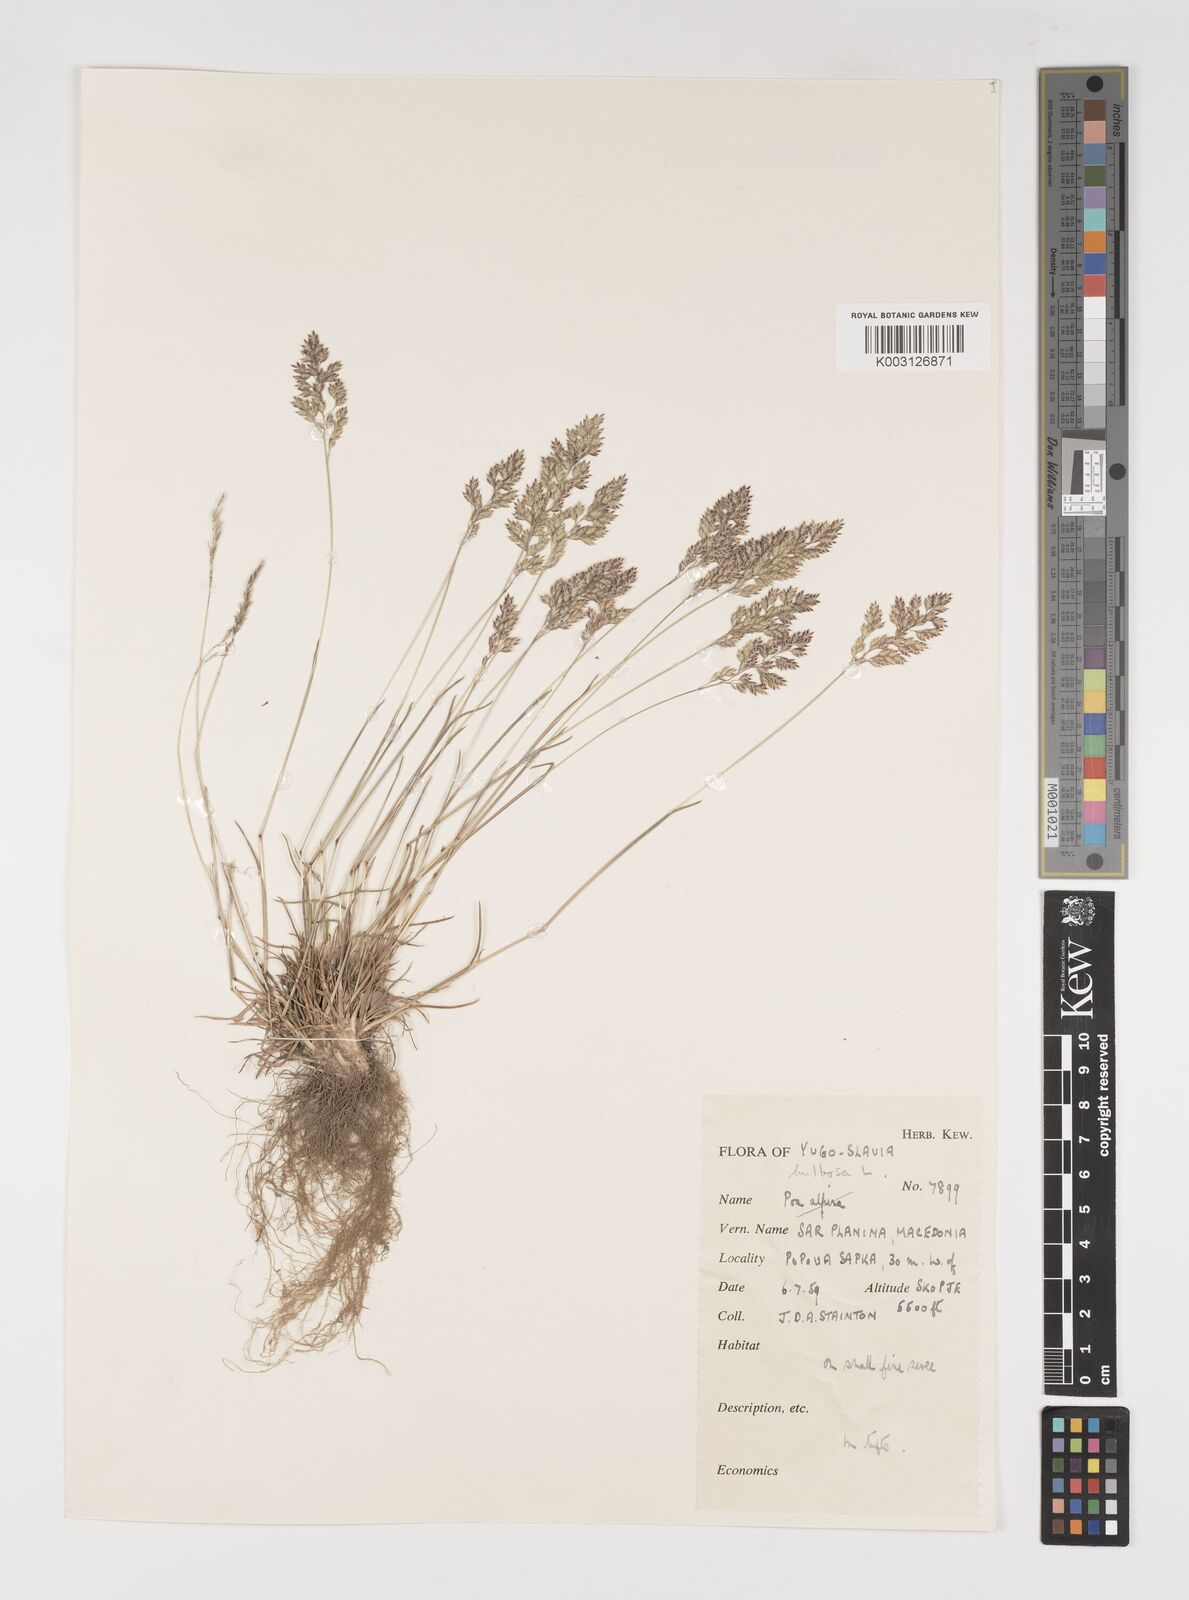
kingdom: Plantae
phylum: Tracheophyta
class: Liliopsida
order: Poales
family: Poaceae
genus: Poa
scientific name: Poa bulbosa
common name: Bulbous bluegrass
